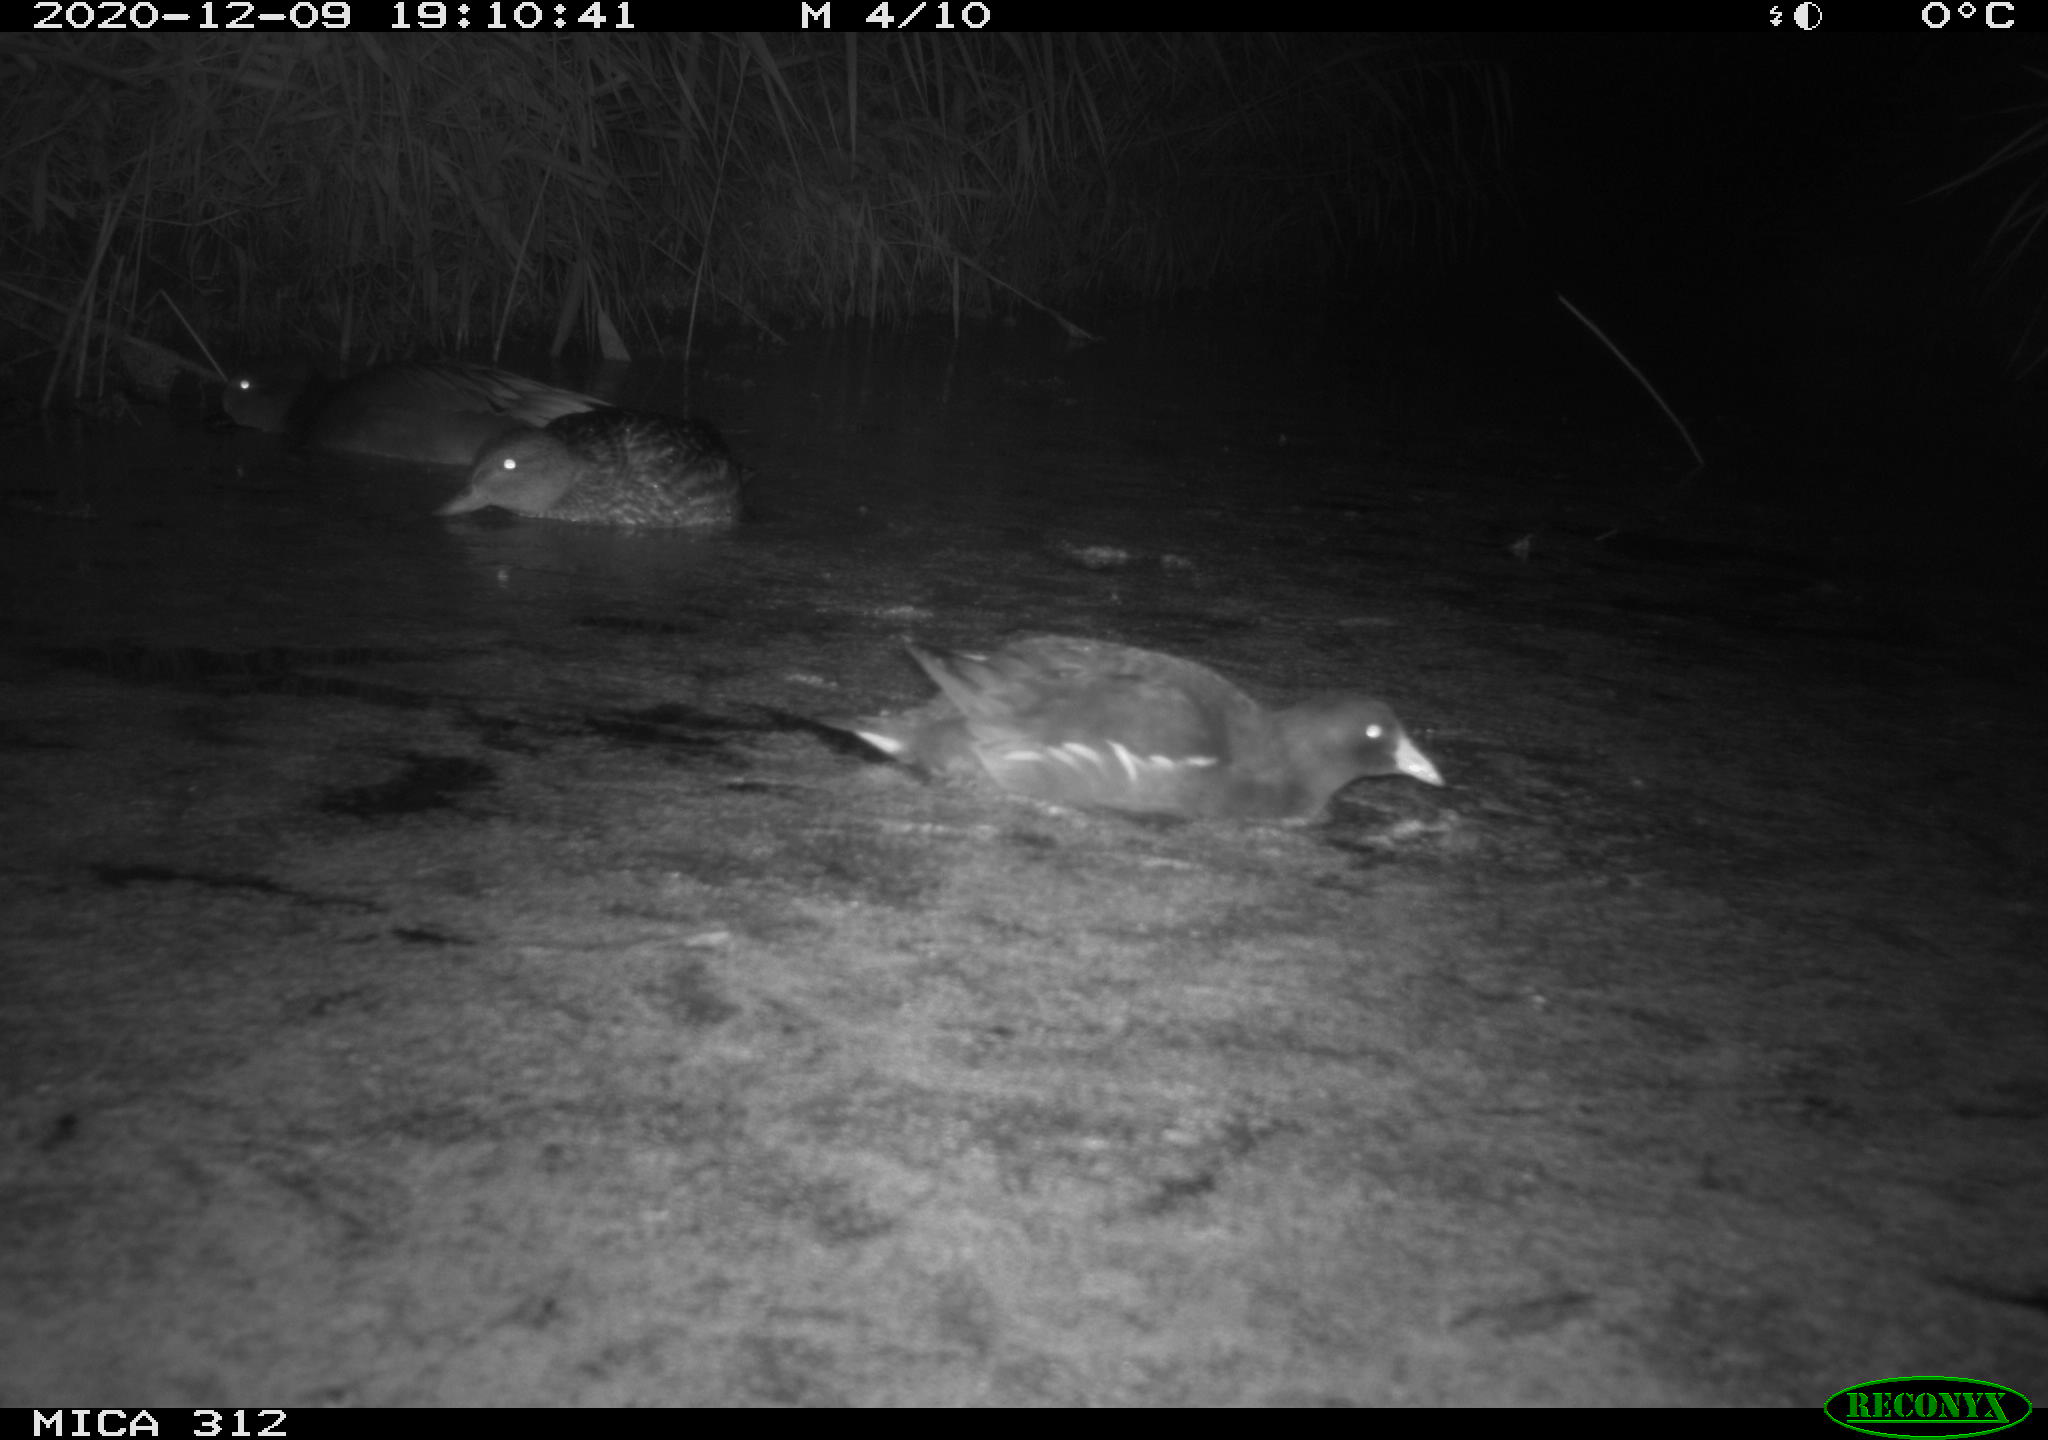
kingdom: Animalia
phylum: Chordata
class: Aves
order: Anseriformes
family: Anatidae
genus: Mareca
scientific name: Mareca strepera
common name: Gadwall
